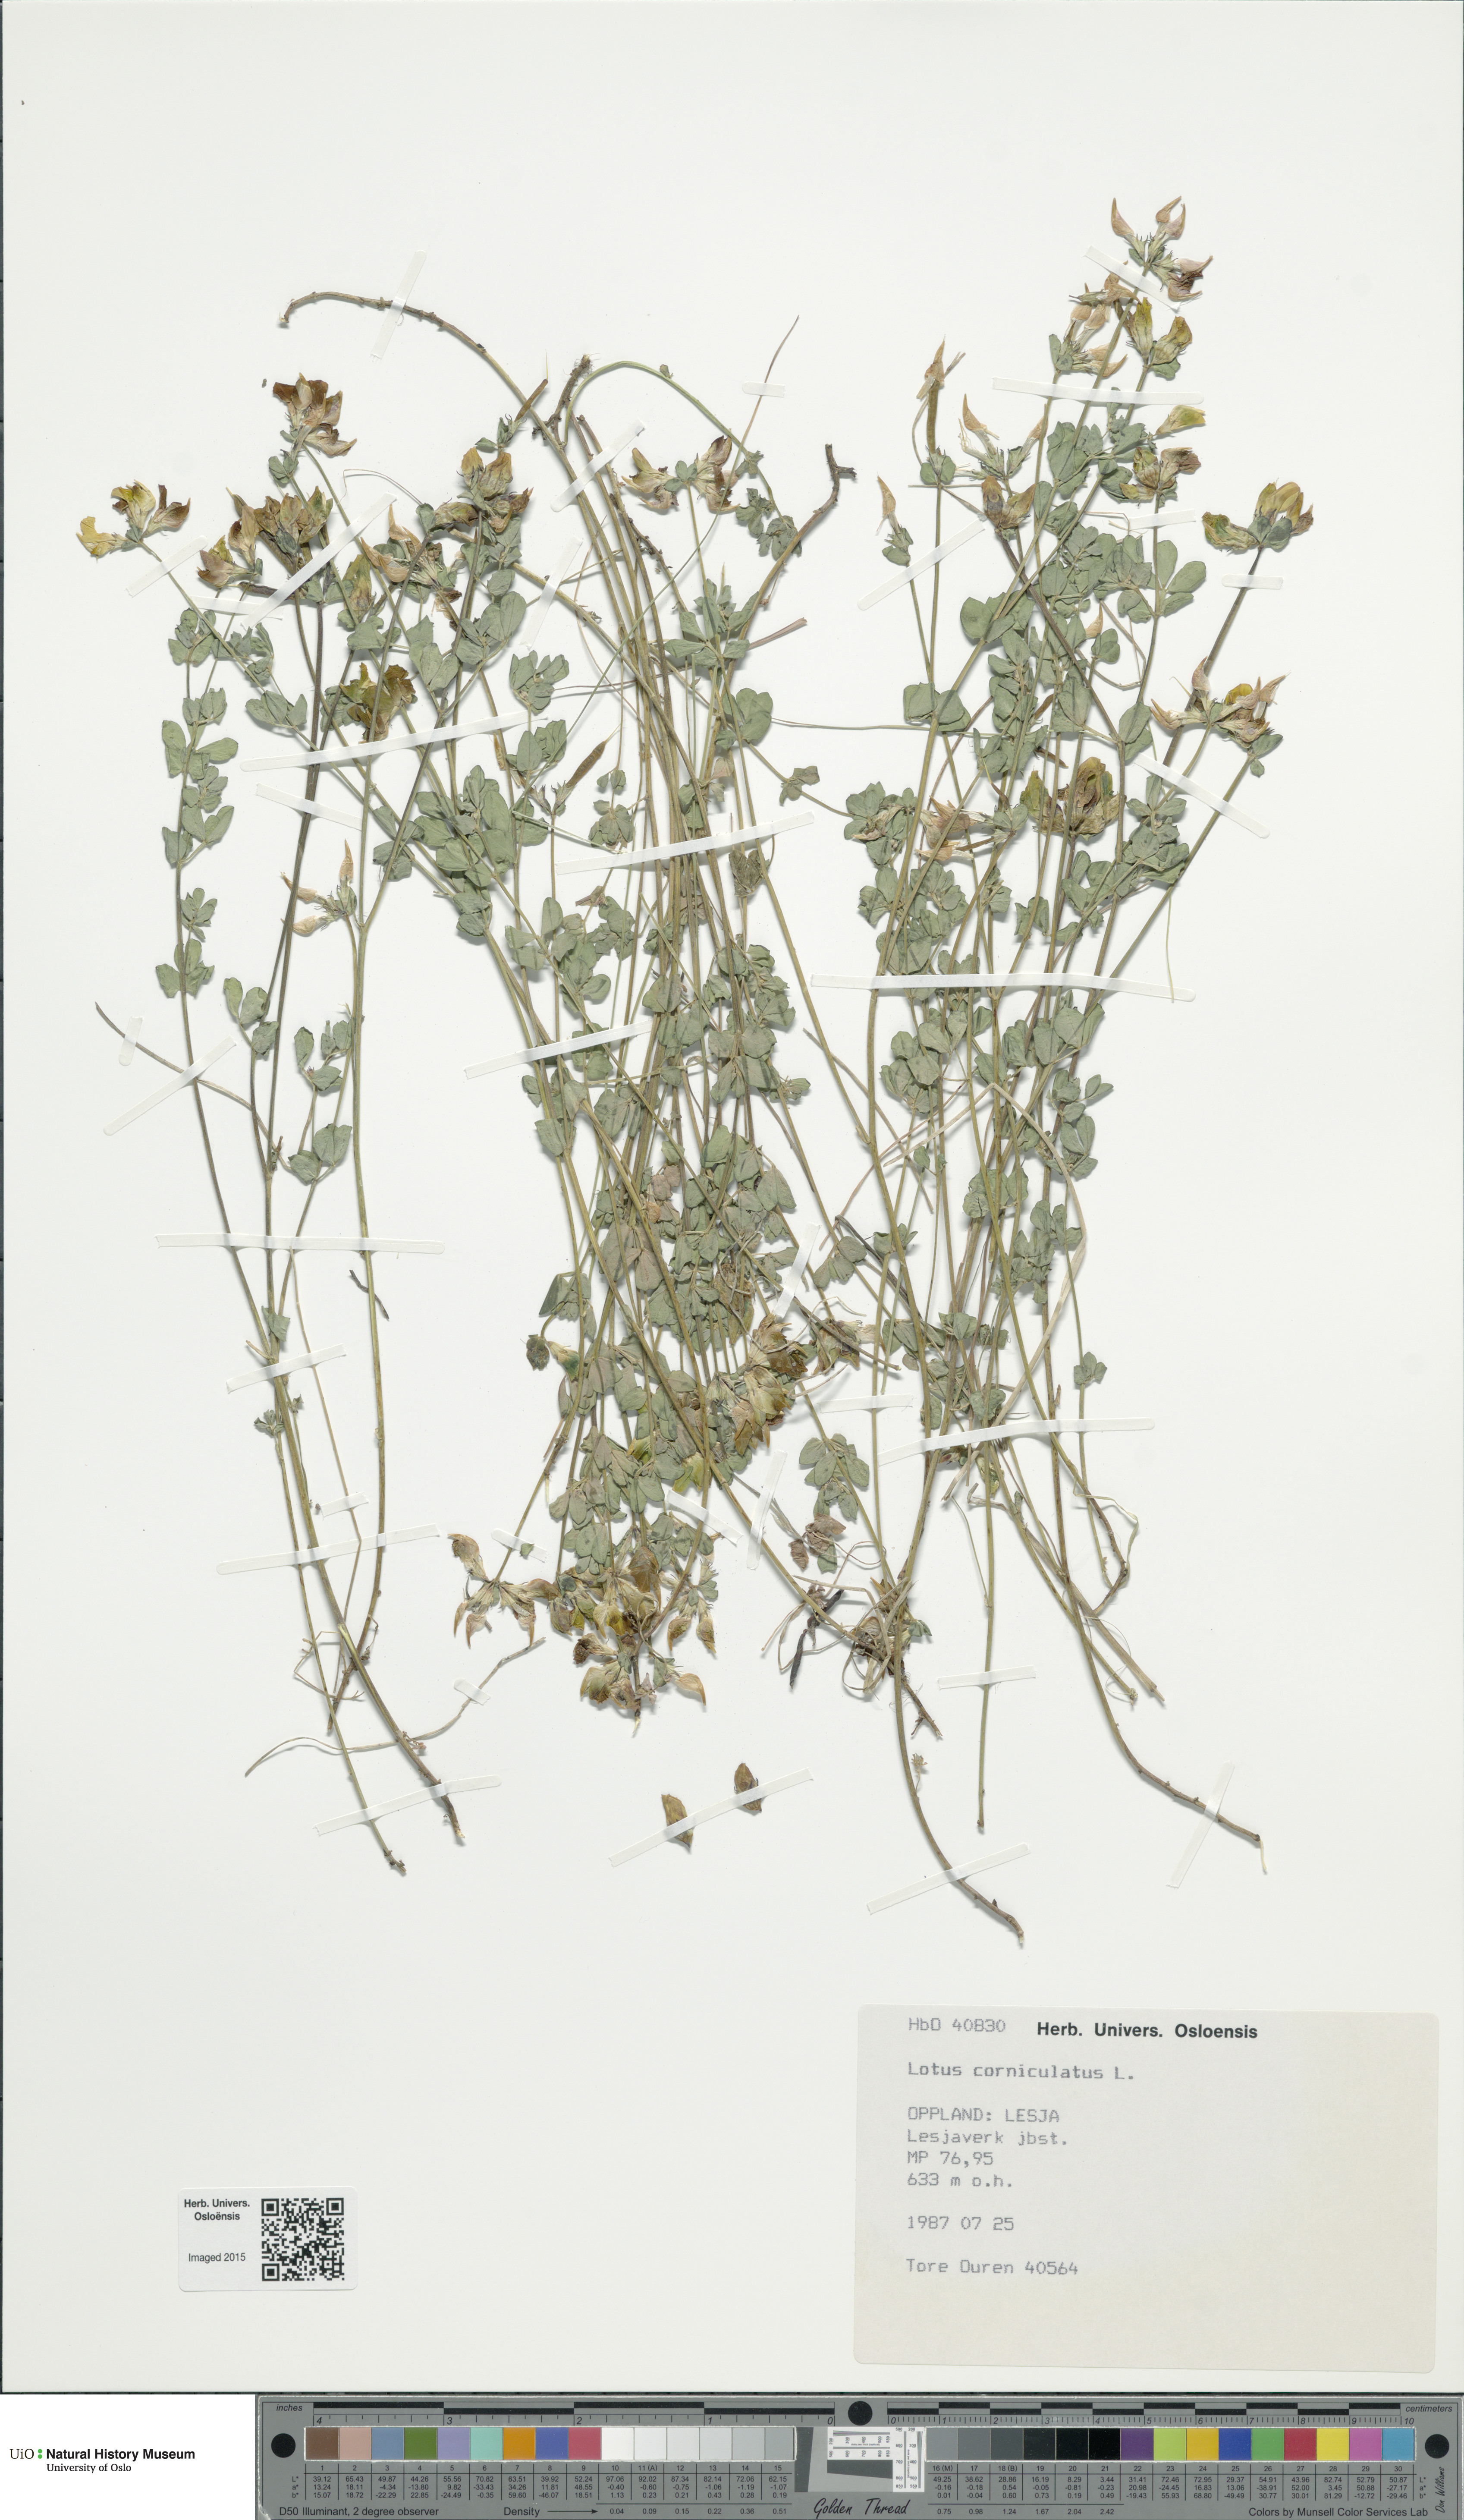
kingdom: Plantae
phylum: Tracheophyta
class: Magnoliopsida
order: Fabales
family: Fabaceae
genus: Lotus
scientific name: Lotus corniculatus
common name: Common bird's-foot-trefoil
